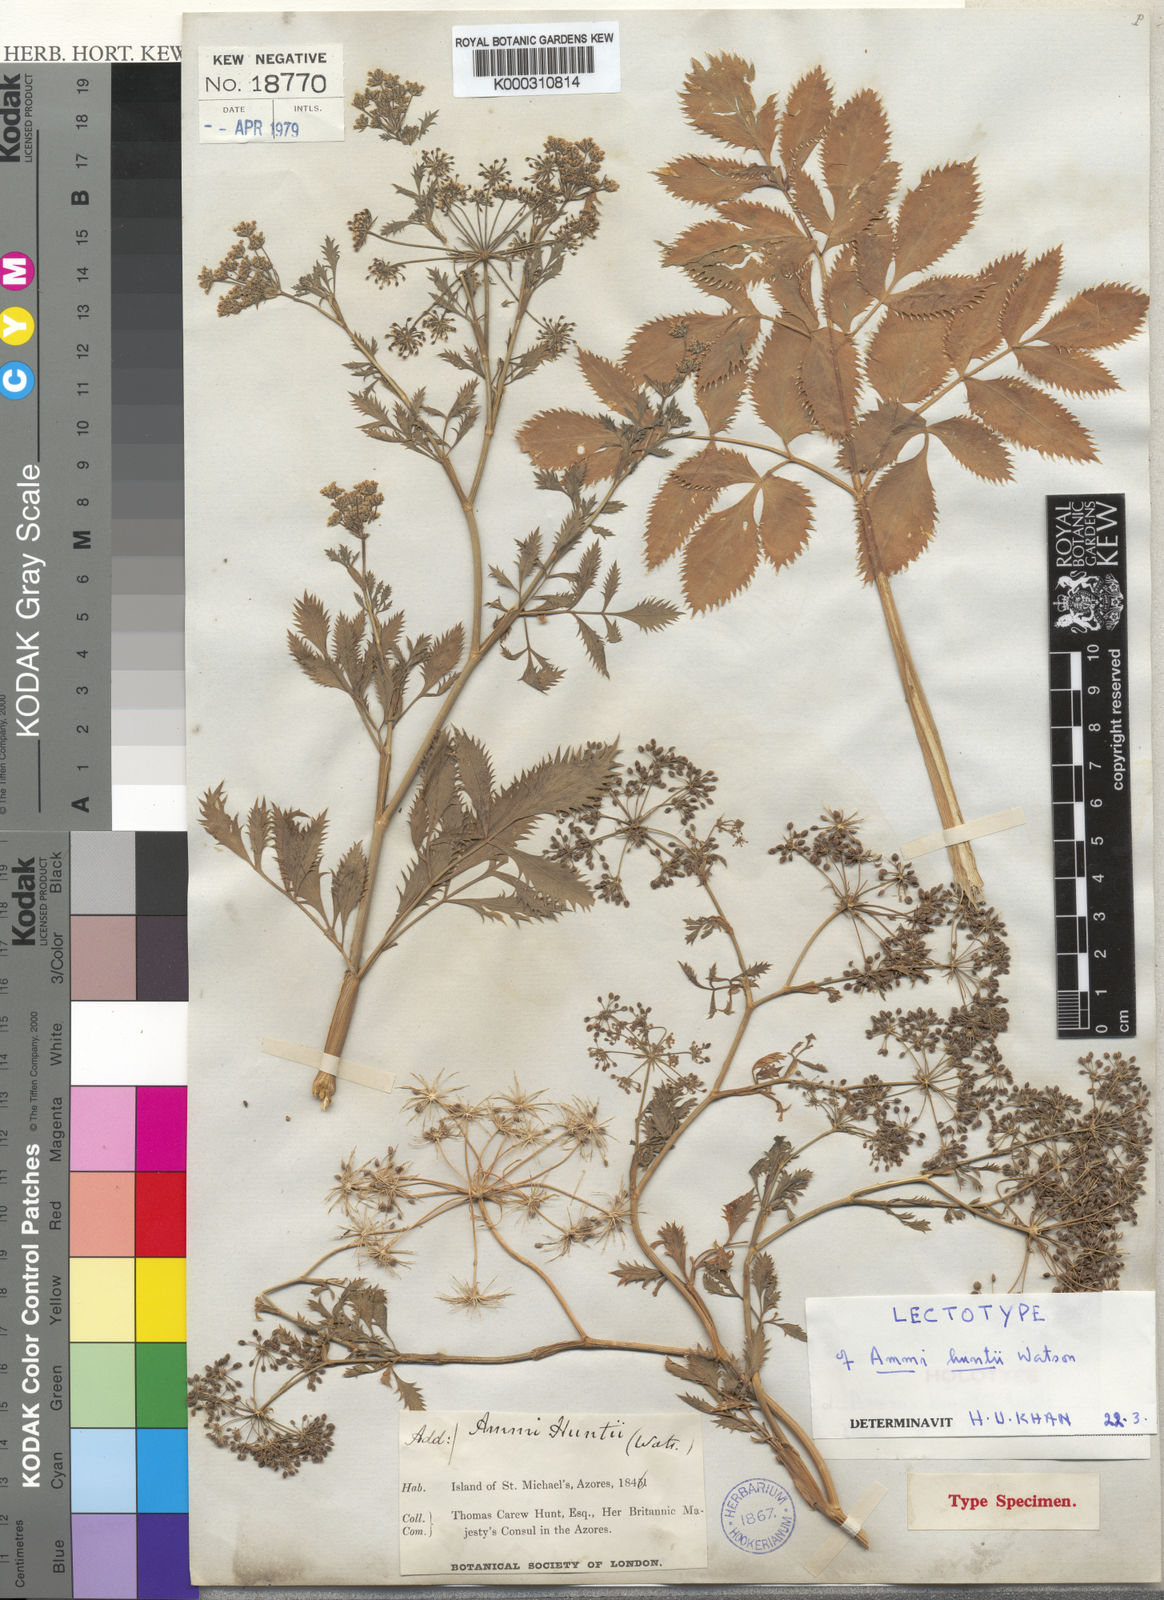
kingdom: Plantae
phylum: Tracheophyta
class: Magnoliopsida
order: Apiales
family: Apiaceae
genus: Ammi
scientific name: Ammi trifoliatum
